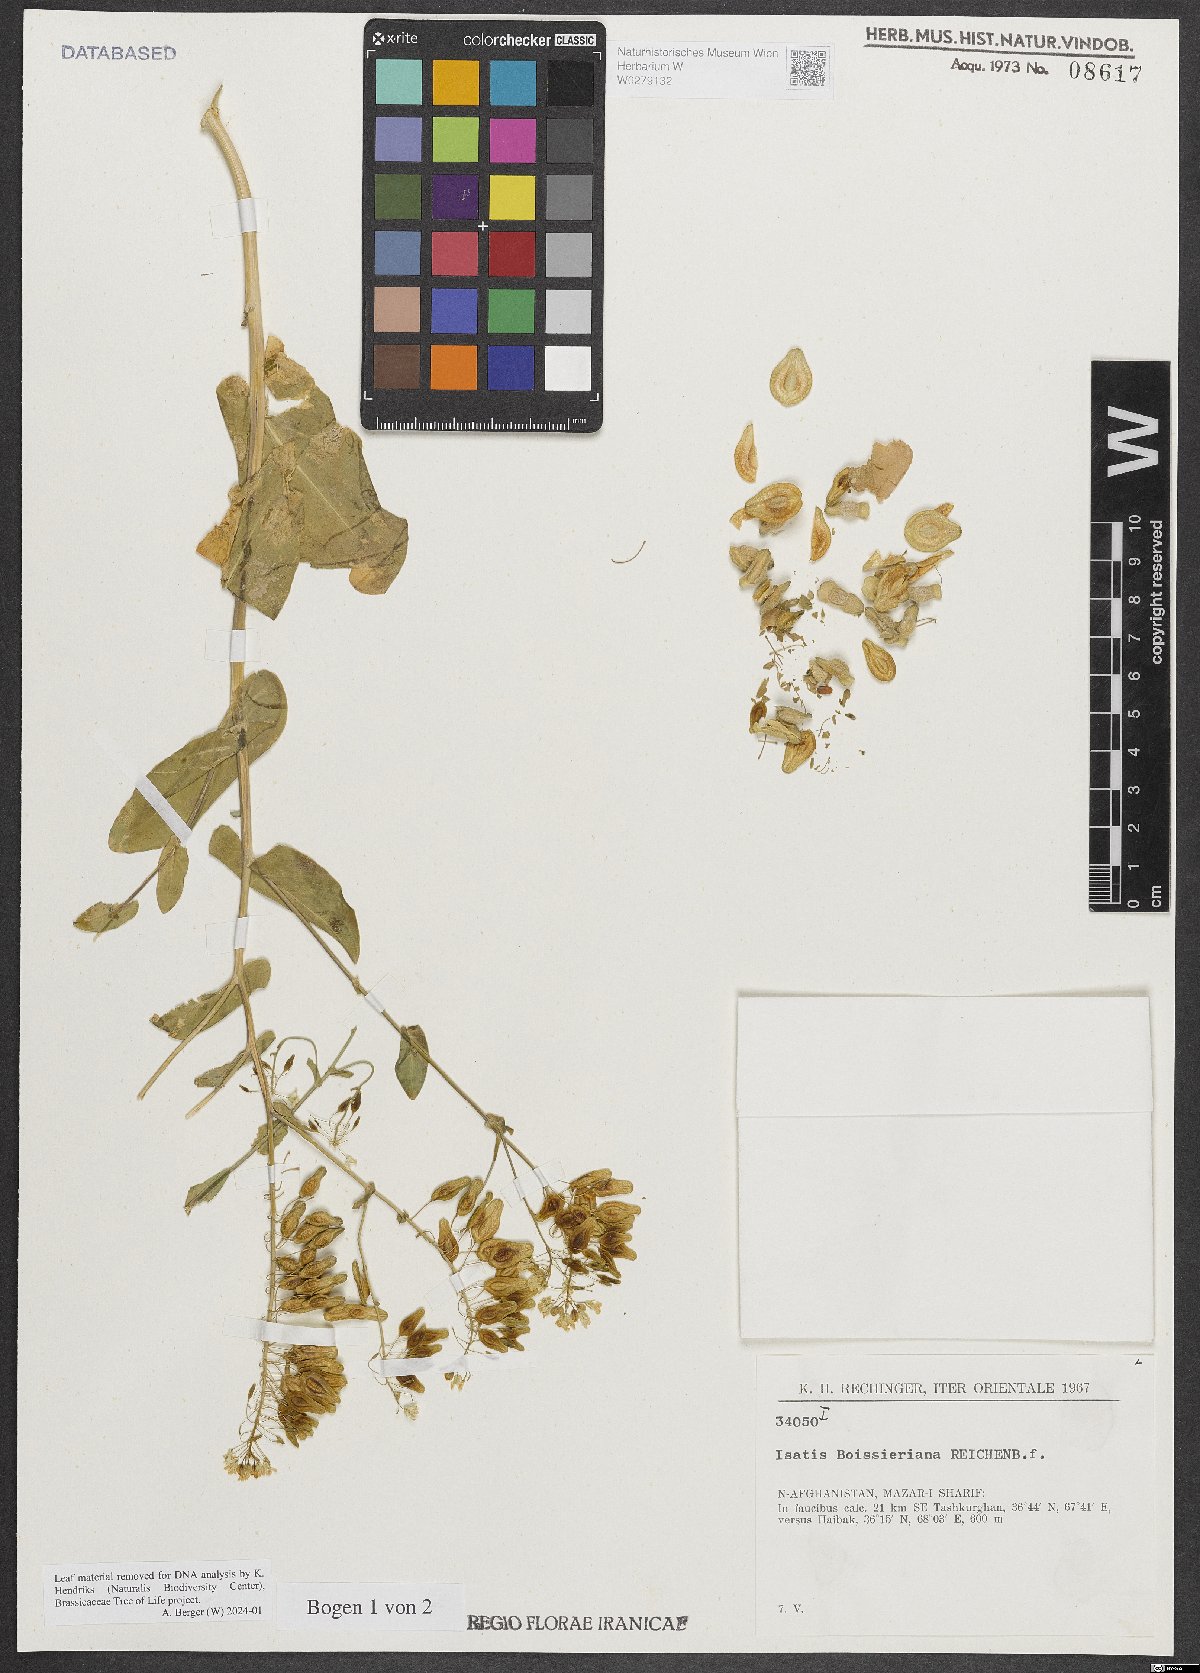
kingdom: Plantae
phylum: Tracheophyta
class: Magnoliopsida
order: Brassicales
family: Brassicaceae
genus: Isatis
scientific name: Isatis boissieriana
